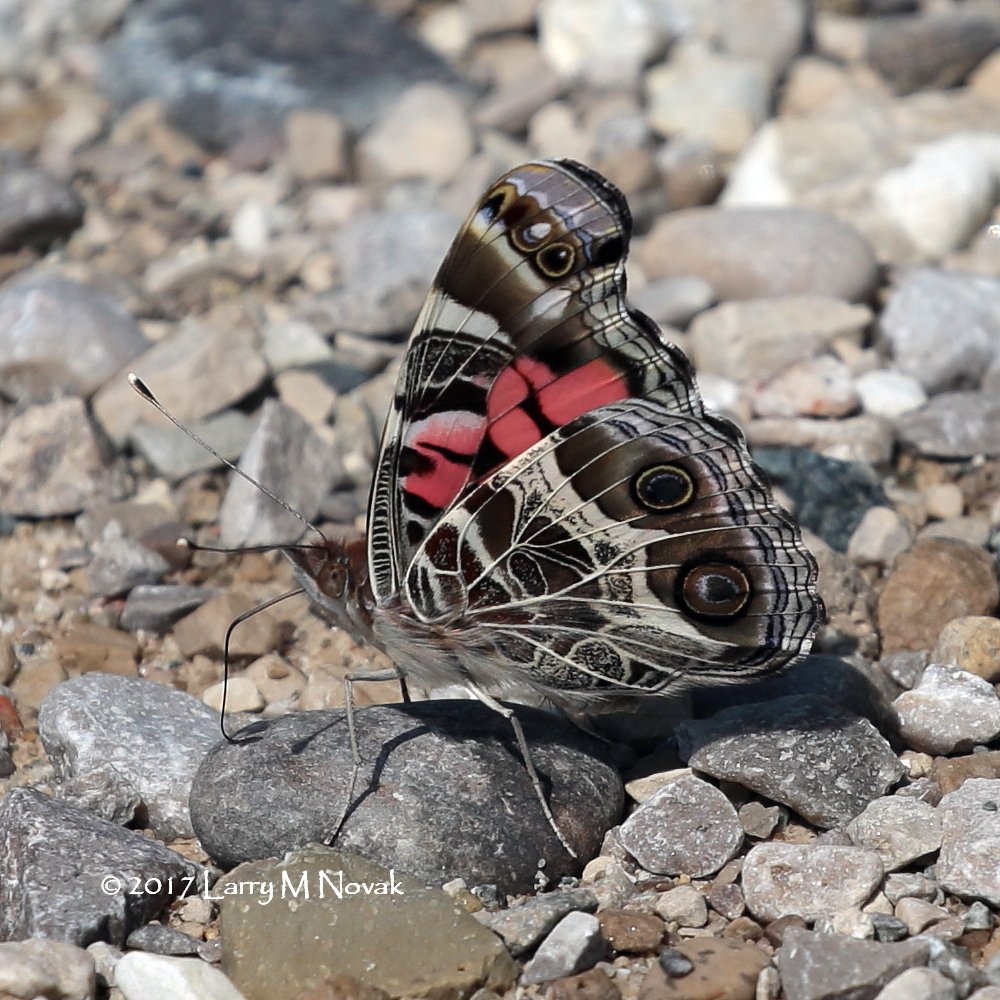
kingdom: Animalia
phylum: Arthropoda
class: Insecta
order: Lepidoptera
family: Nymphalidae
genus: Vanessa
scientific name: Vanessa cardui
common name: Painted Lady
